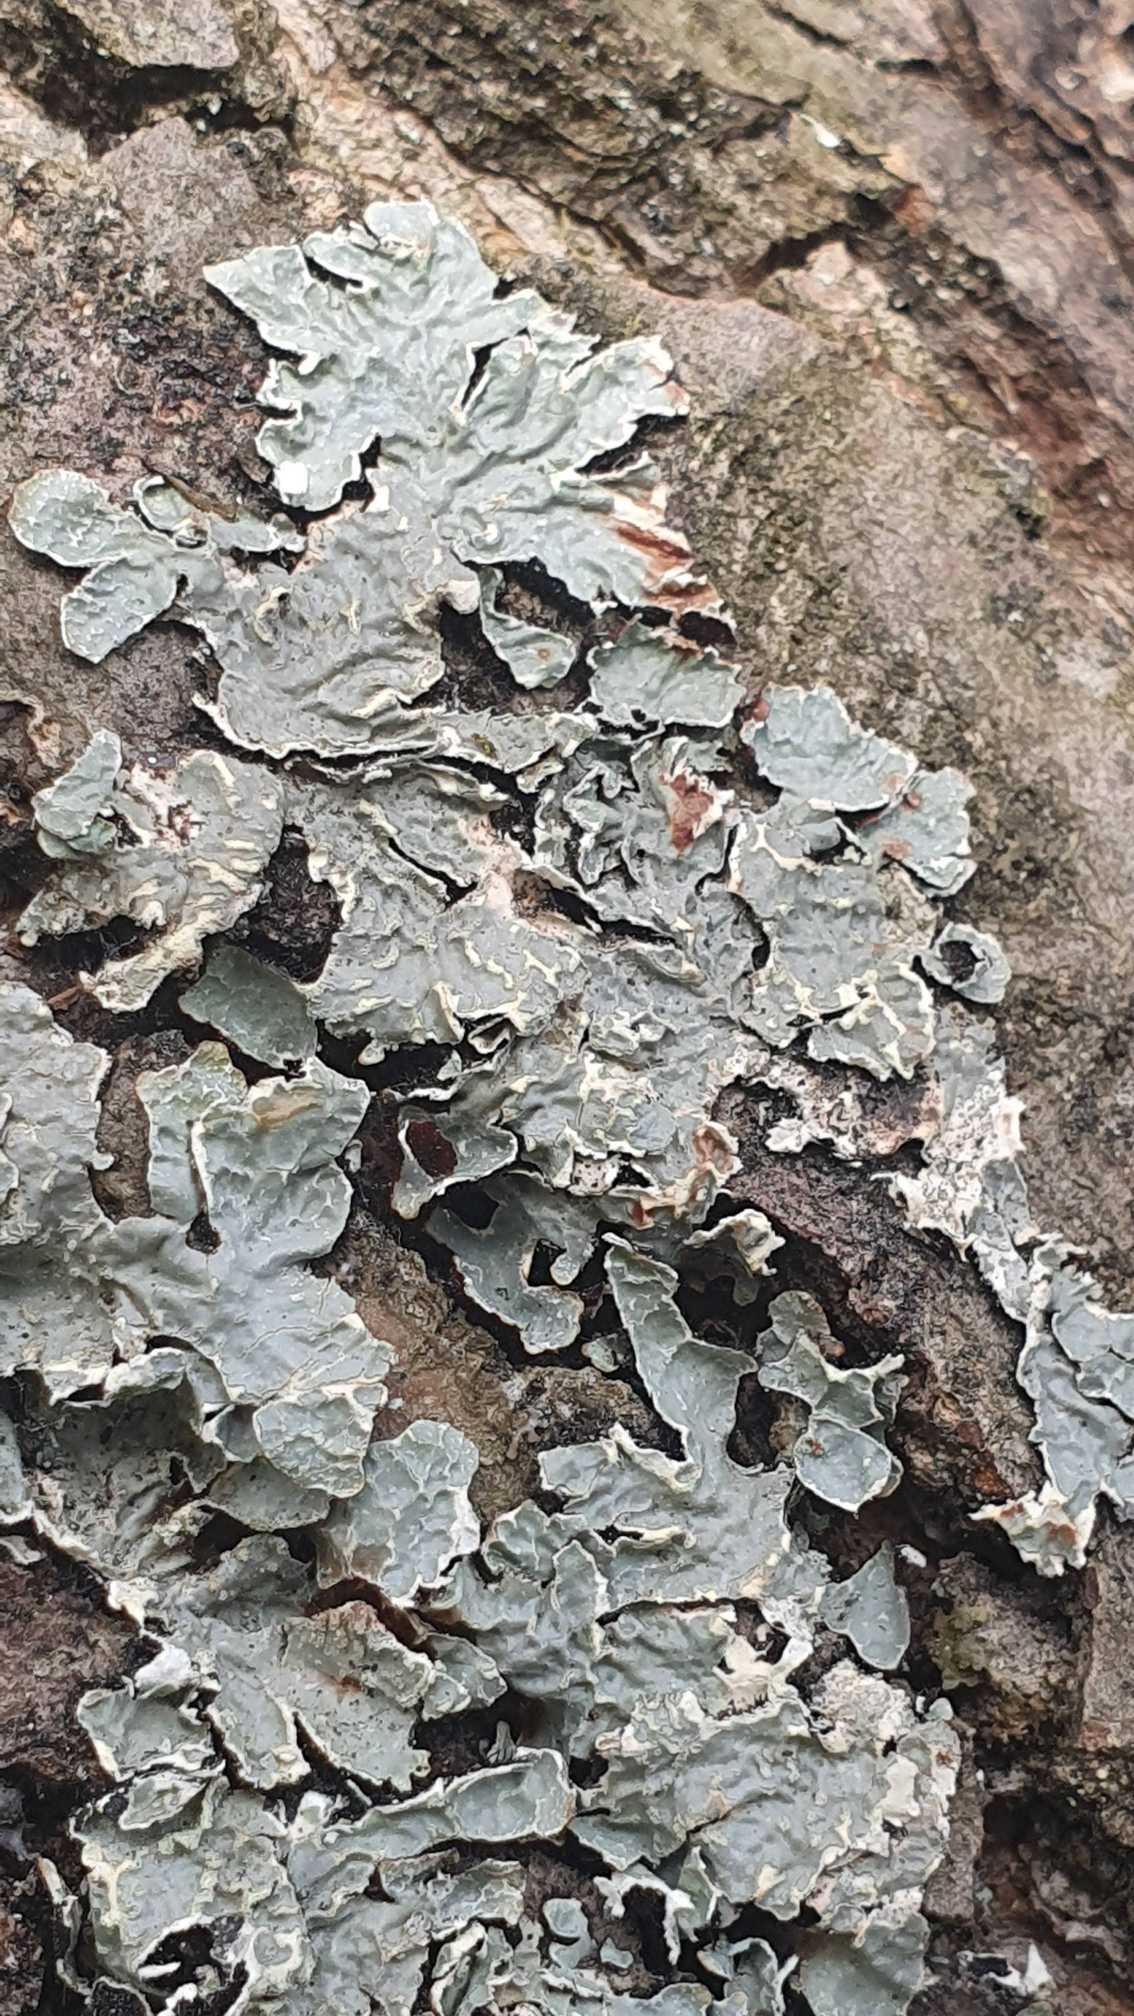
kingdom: Fungi
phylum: Ascomycota
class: Lecanoromycetes
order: Lecanorales
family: Parmeliaceae
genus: Parmelia
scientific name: Parmelia sulcata
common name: Rynket skållav
